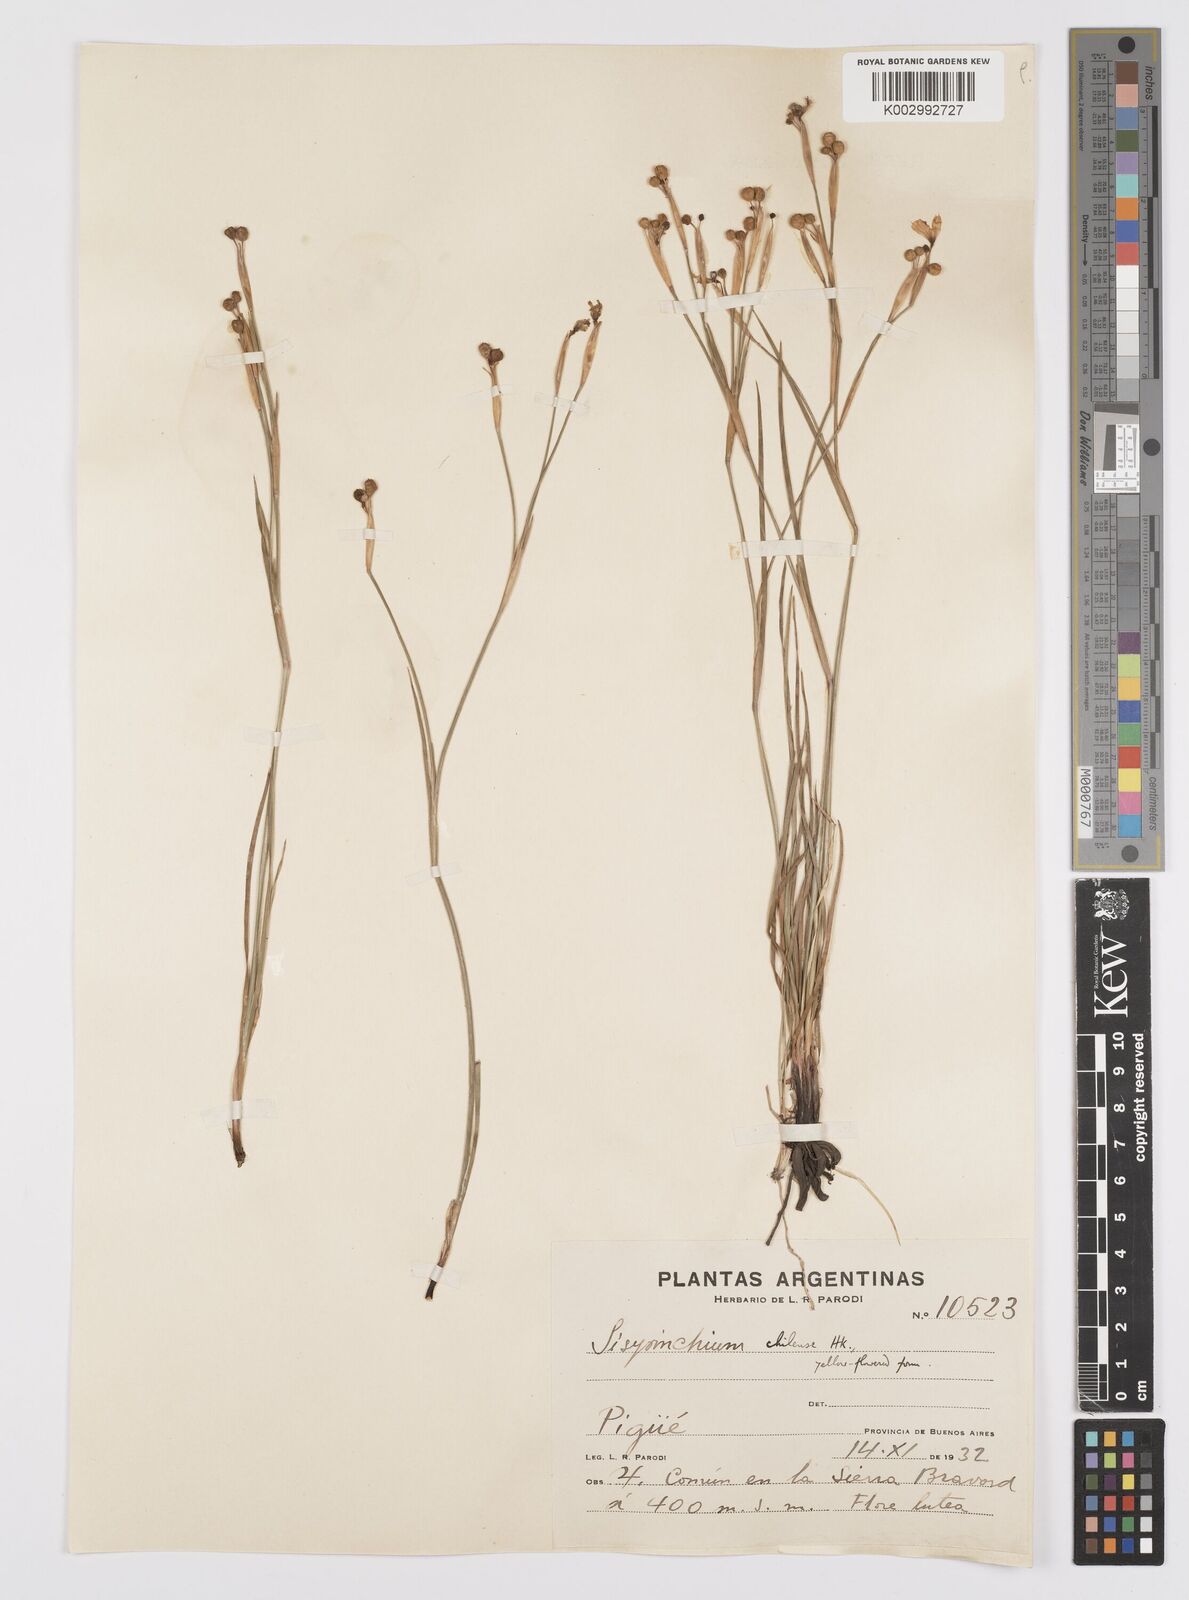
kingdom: Plantae
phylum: Tracheophyta
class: Liliopsida
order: Asparagales
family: Iridaceae
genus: Sisyrinchium
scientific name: Sisyrinchium chilense
